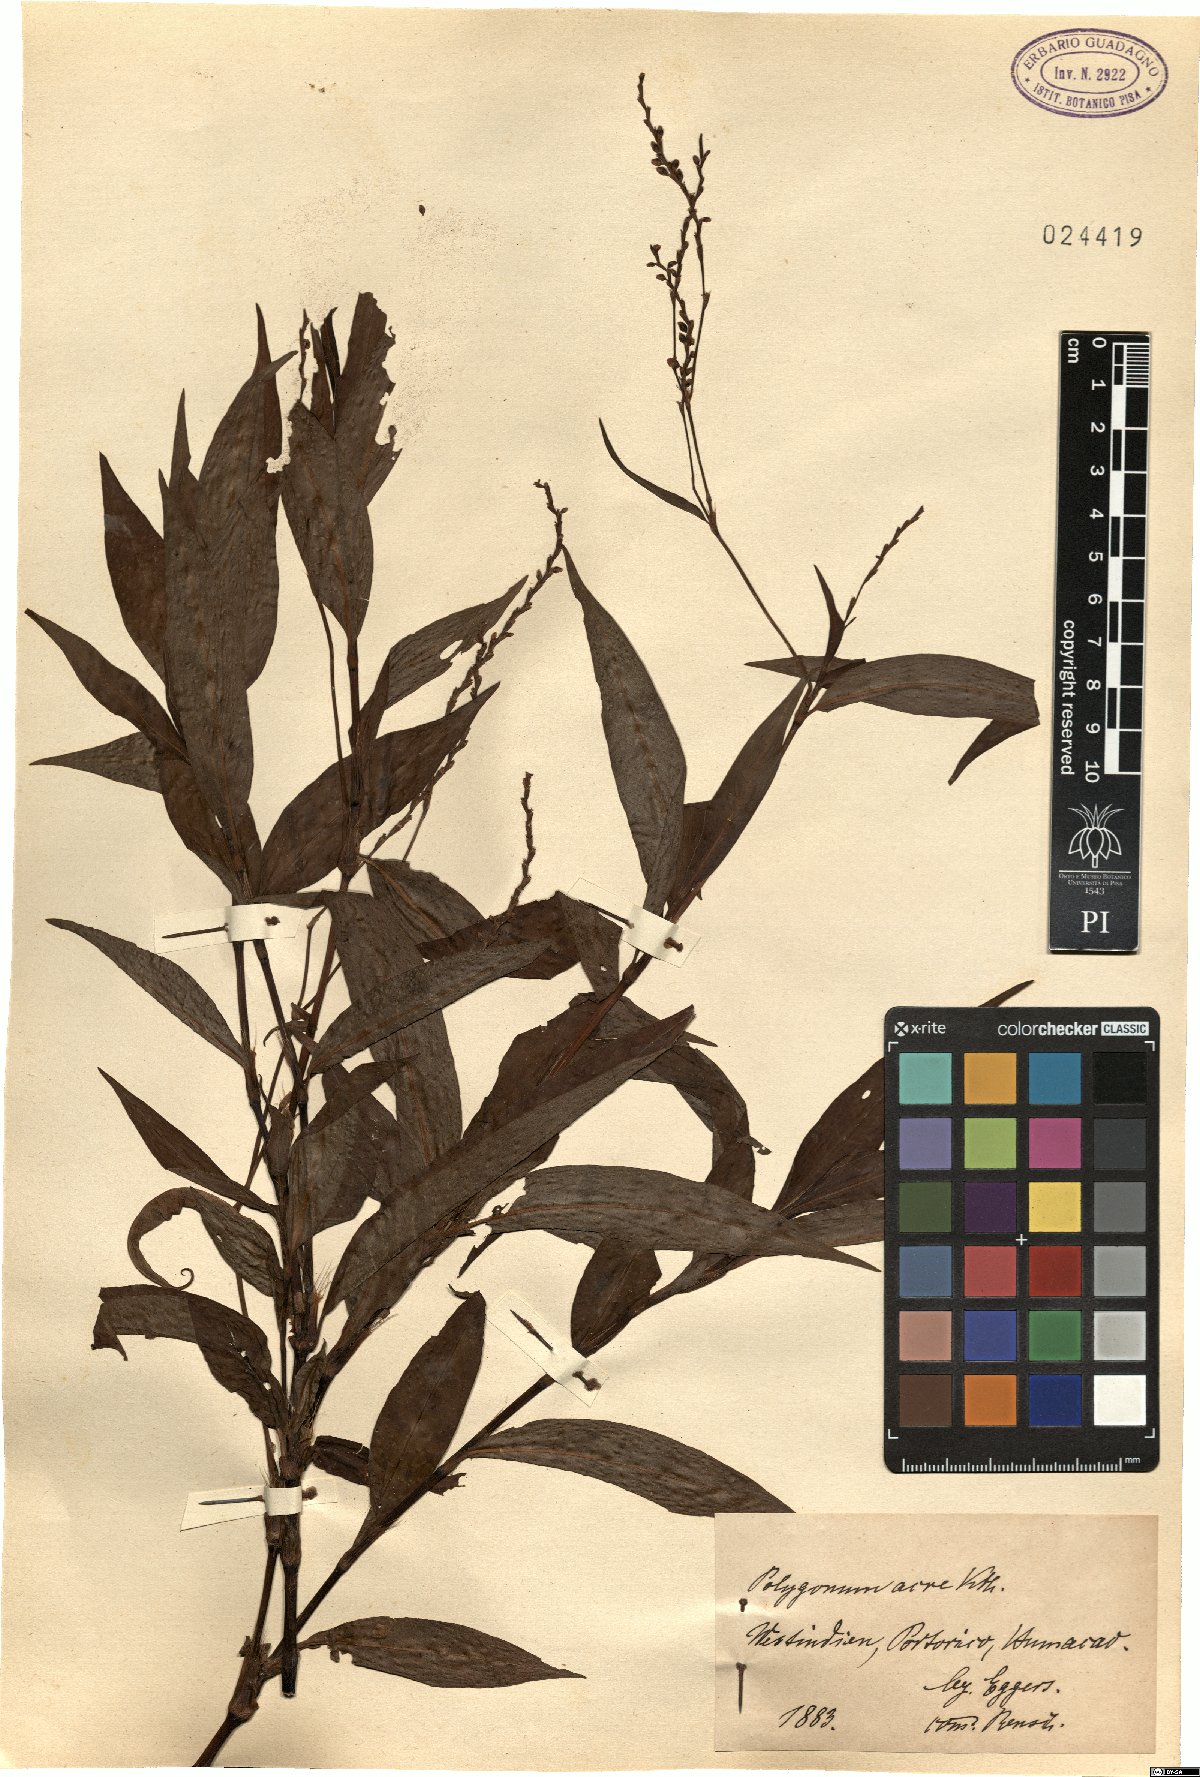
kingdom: Plantae
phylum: Tracheophyta
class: Magnoliopsida
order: Caryophyllales
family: Polygonaceae
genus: Persicaria
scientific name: Persicaria punctata
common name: Dotted smartweed
